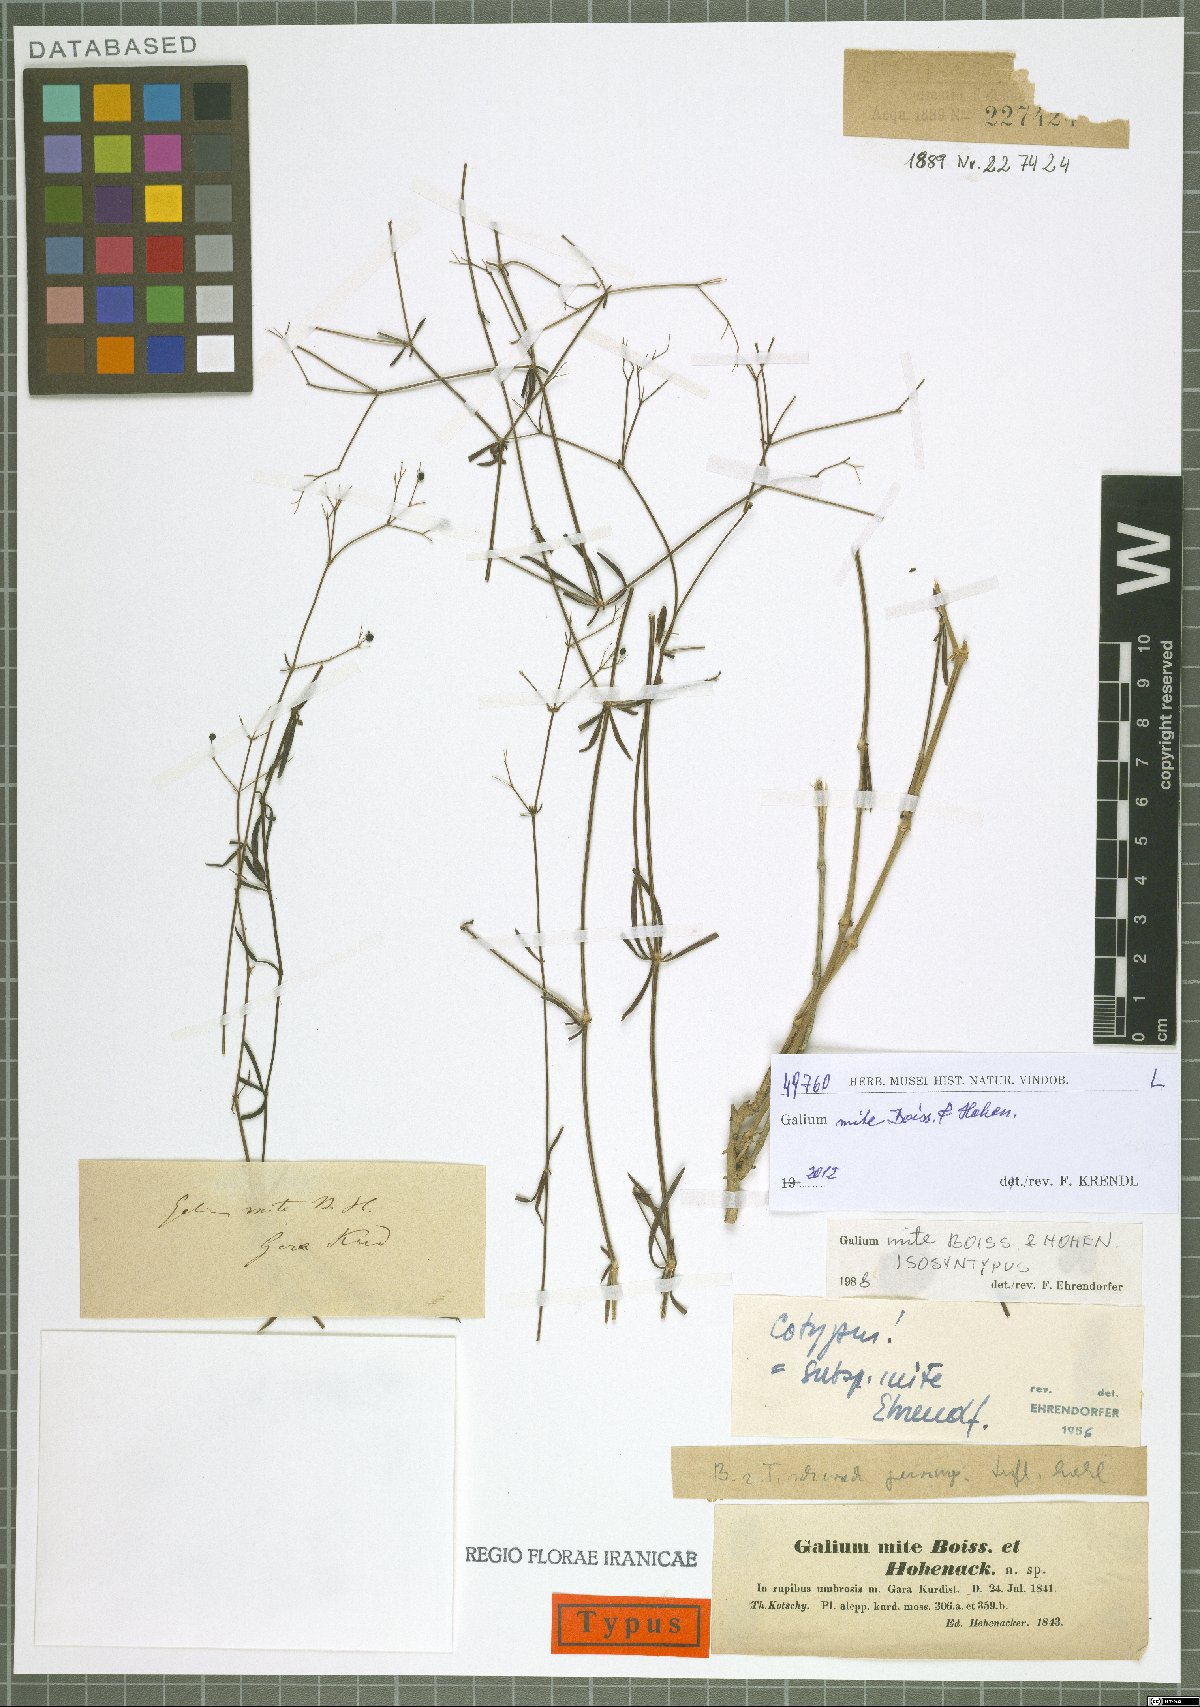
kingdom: Plantae
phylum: Tracheophyta
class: Magnoliopsida
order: Gentianales
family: Rubiaceae
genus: Galium
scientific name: Galium mite
